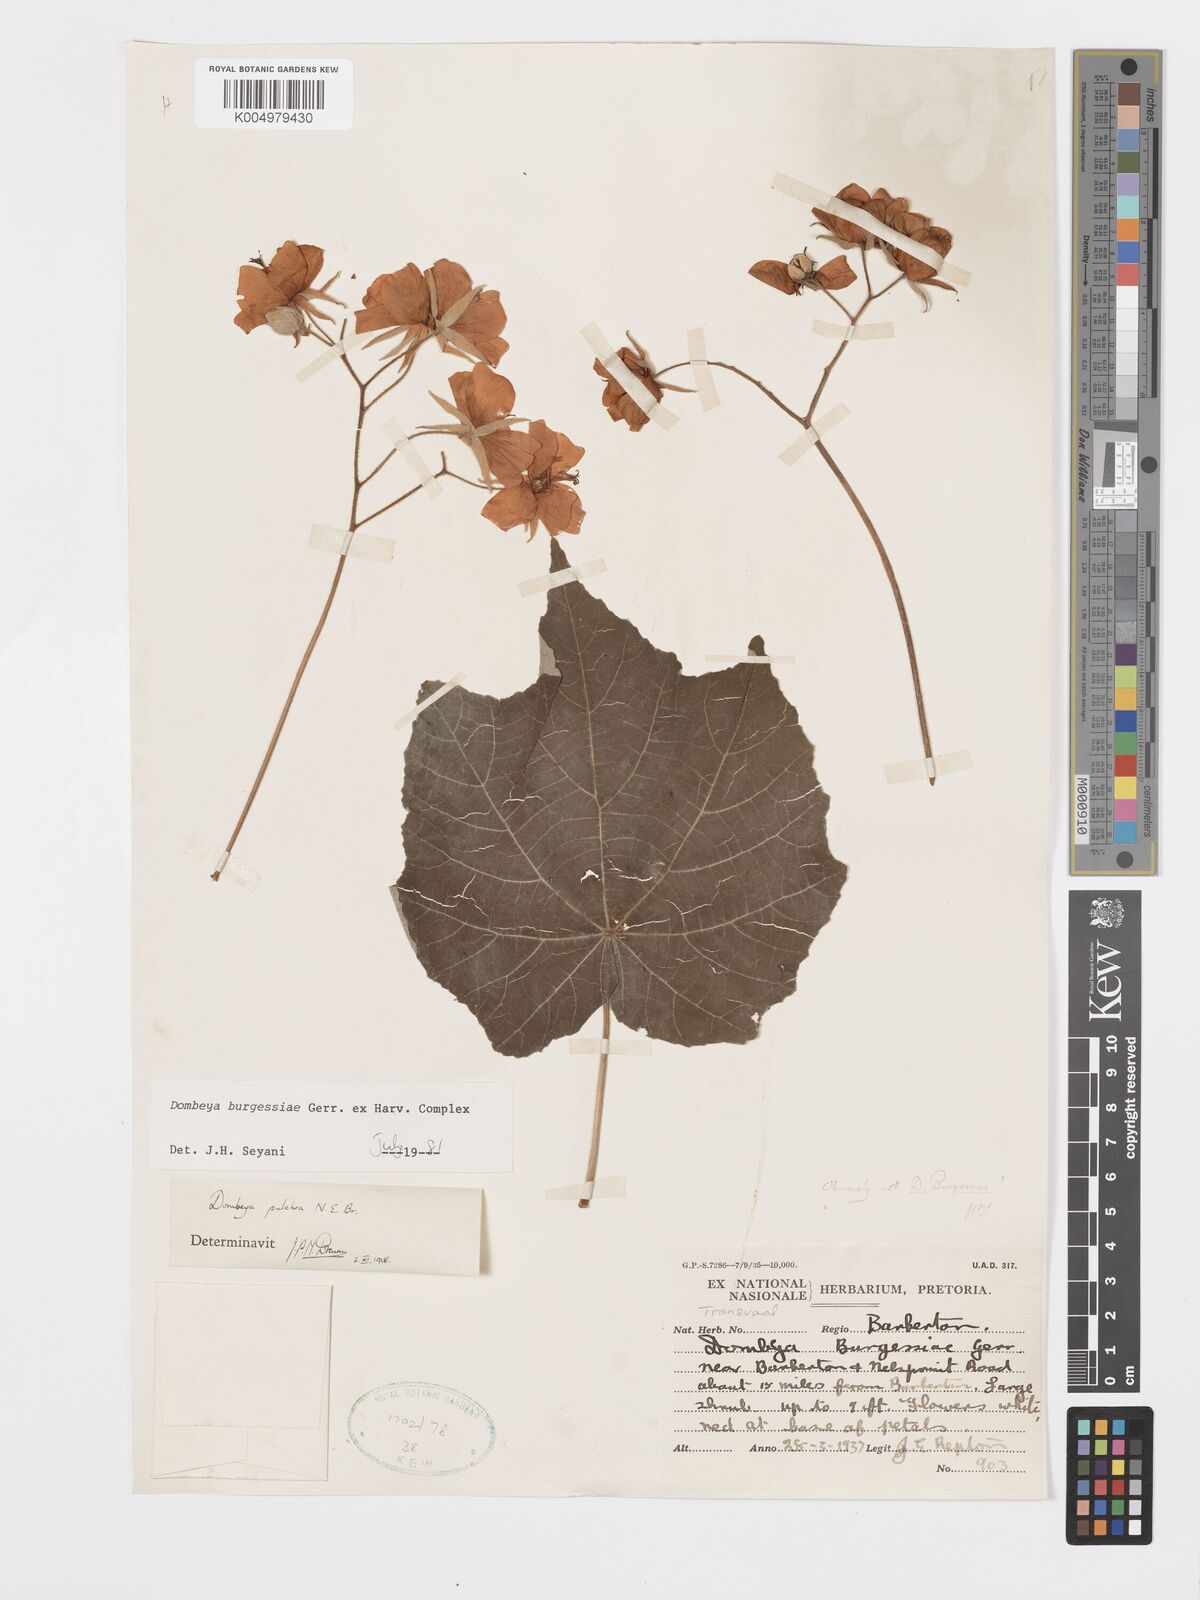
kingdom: Plantae
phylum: Tracheophyta
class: Magnoliopsida
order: Malvales
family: Malvaceae
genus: Dombeya
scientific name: Dombeya burgessiae
